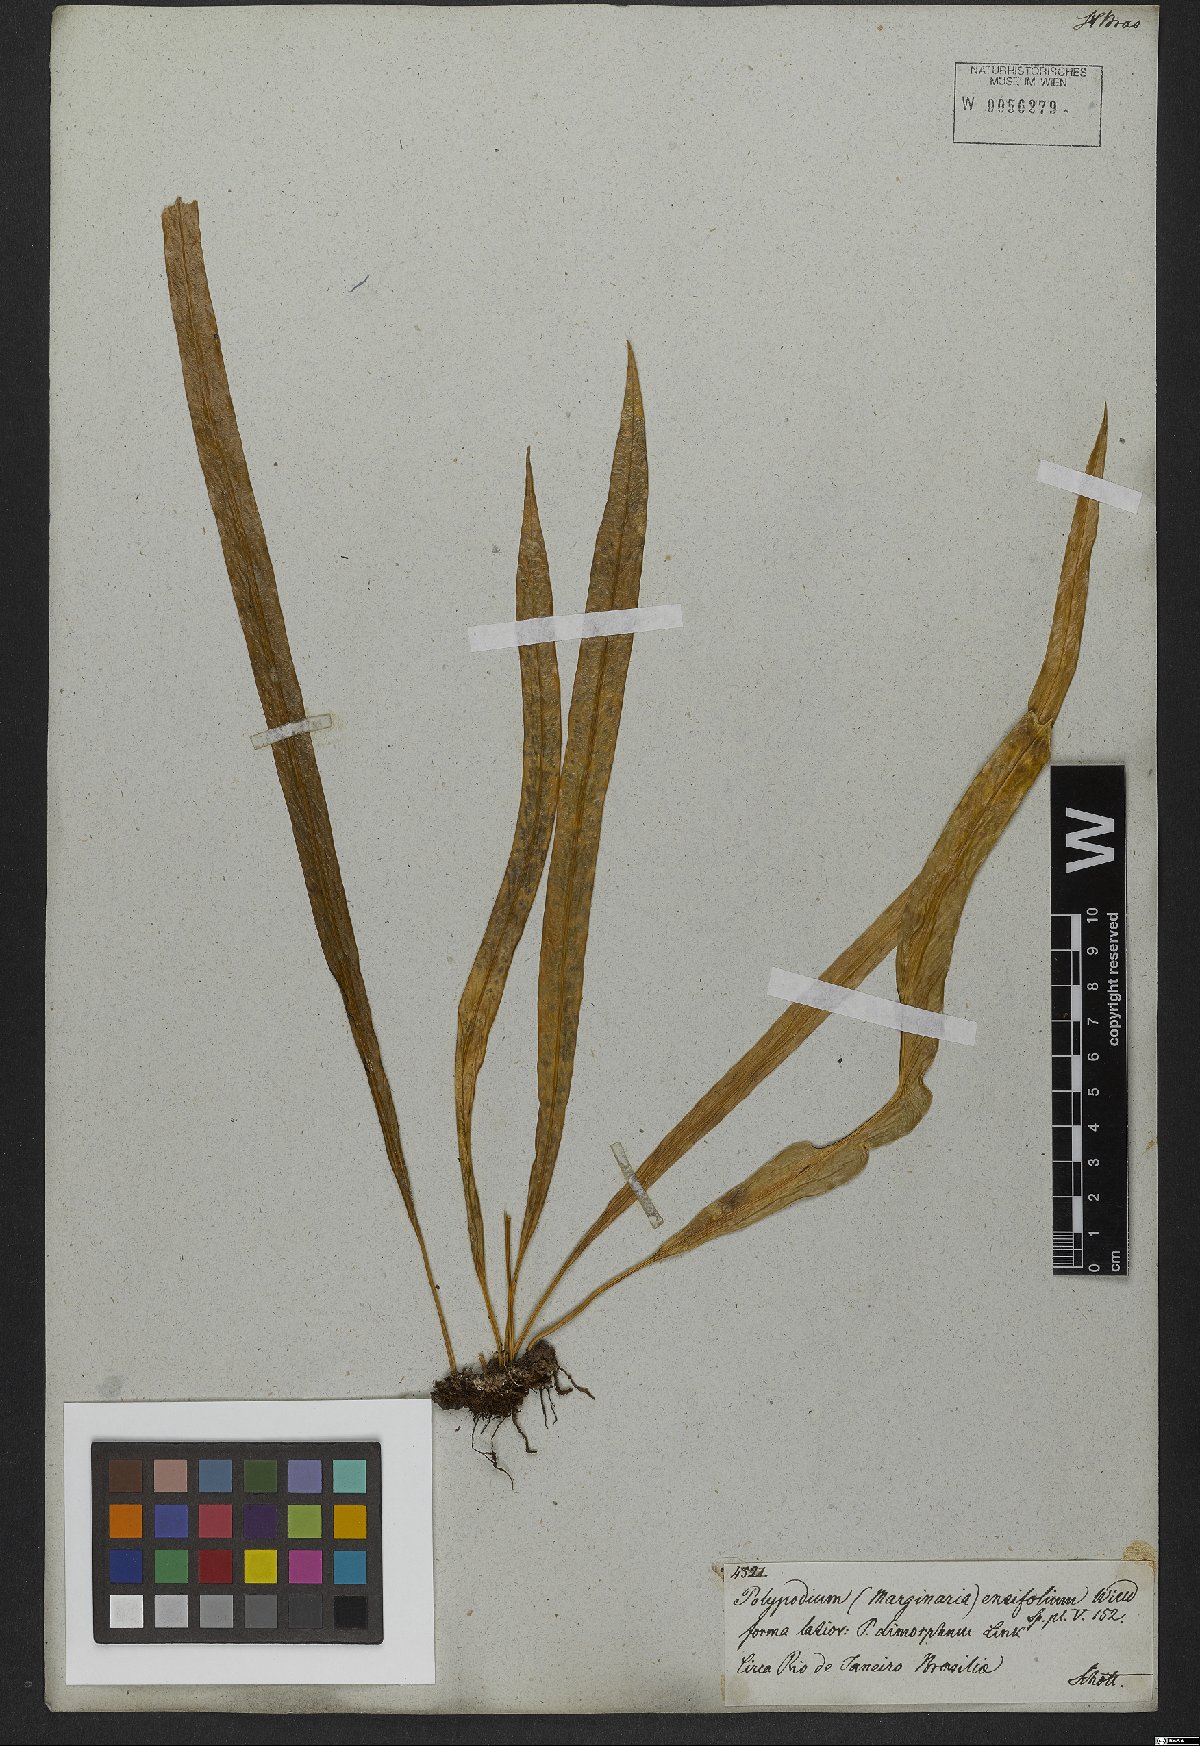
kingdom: Plantae
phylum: Tracheophyta
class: Polypodiopsida
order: Polypodiales
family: Polypodiaceae
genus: Campyloneurum
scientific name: Campyloneurum ensifolium
